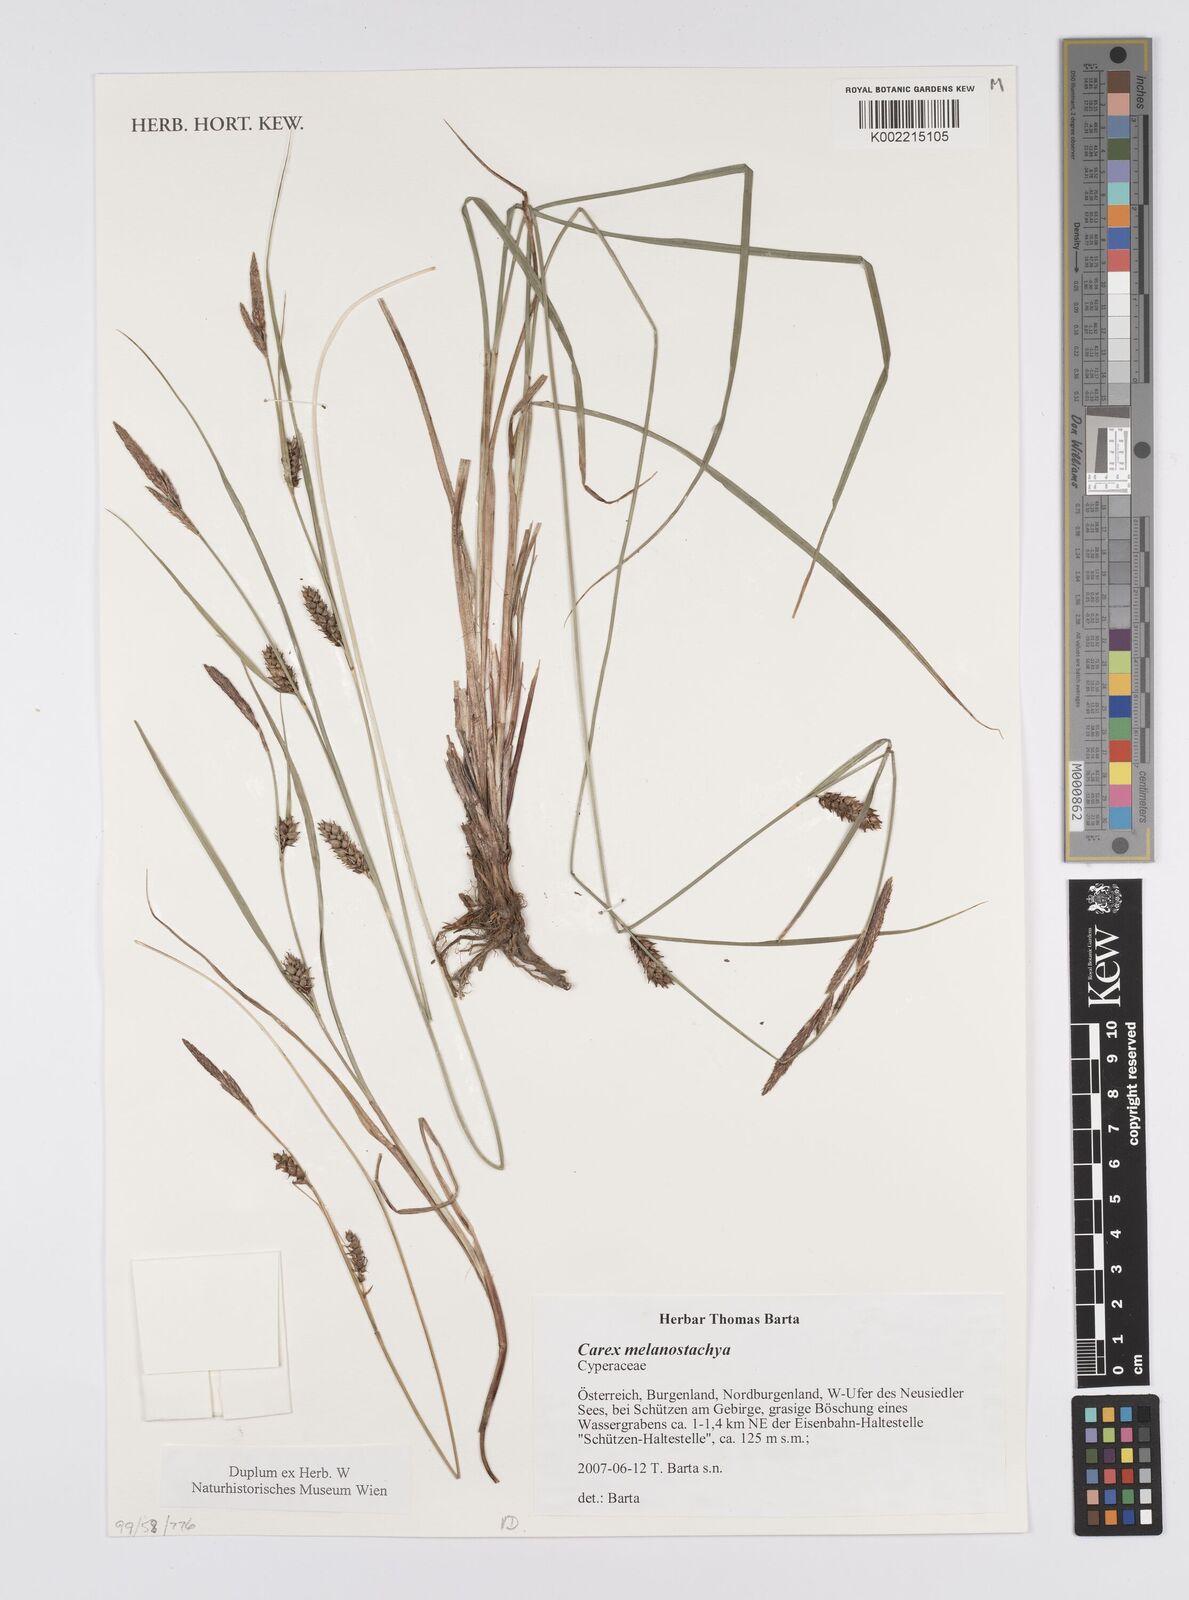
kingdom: Plantae
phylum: Tracheophyta
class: Liliopsida
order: Poales
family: Cyperaceae
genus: Carex
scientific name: Carex melanostachya
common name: Black-spiked sedge
